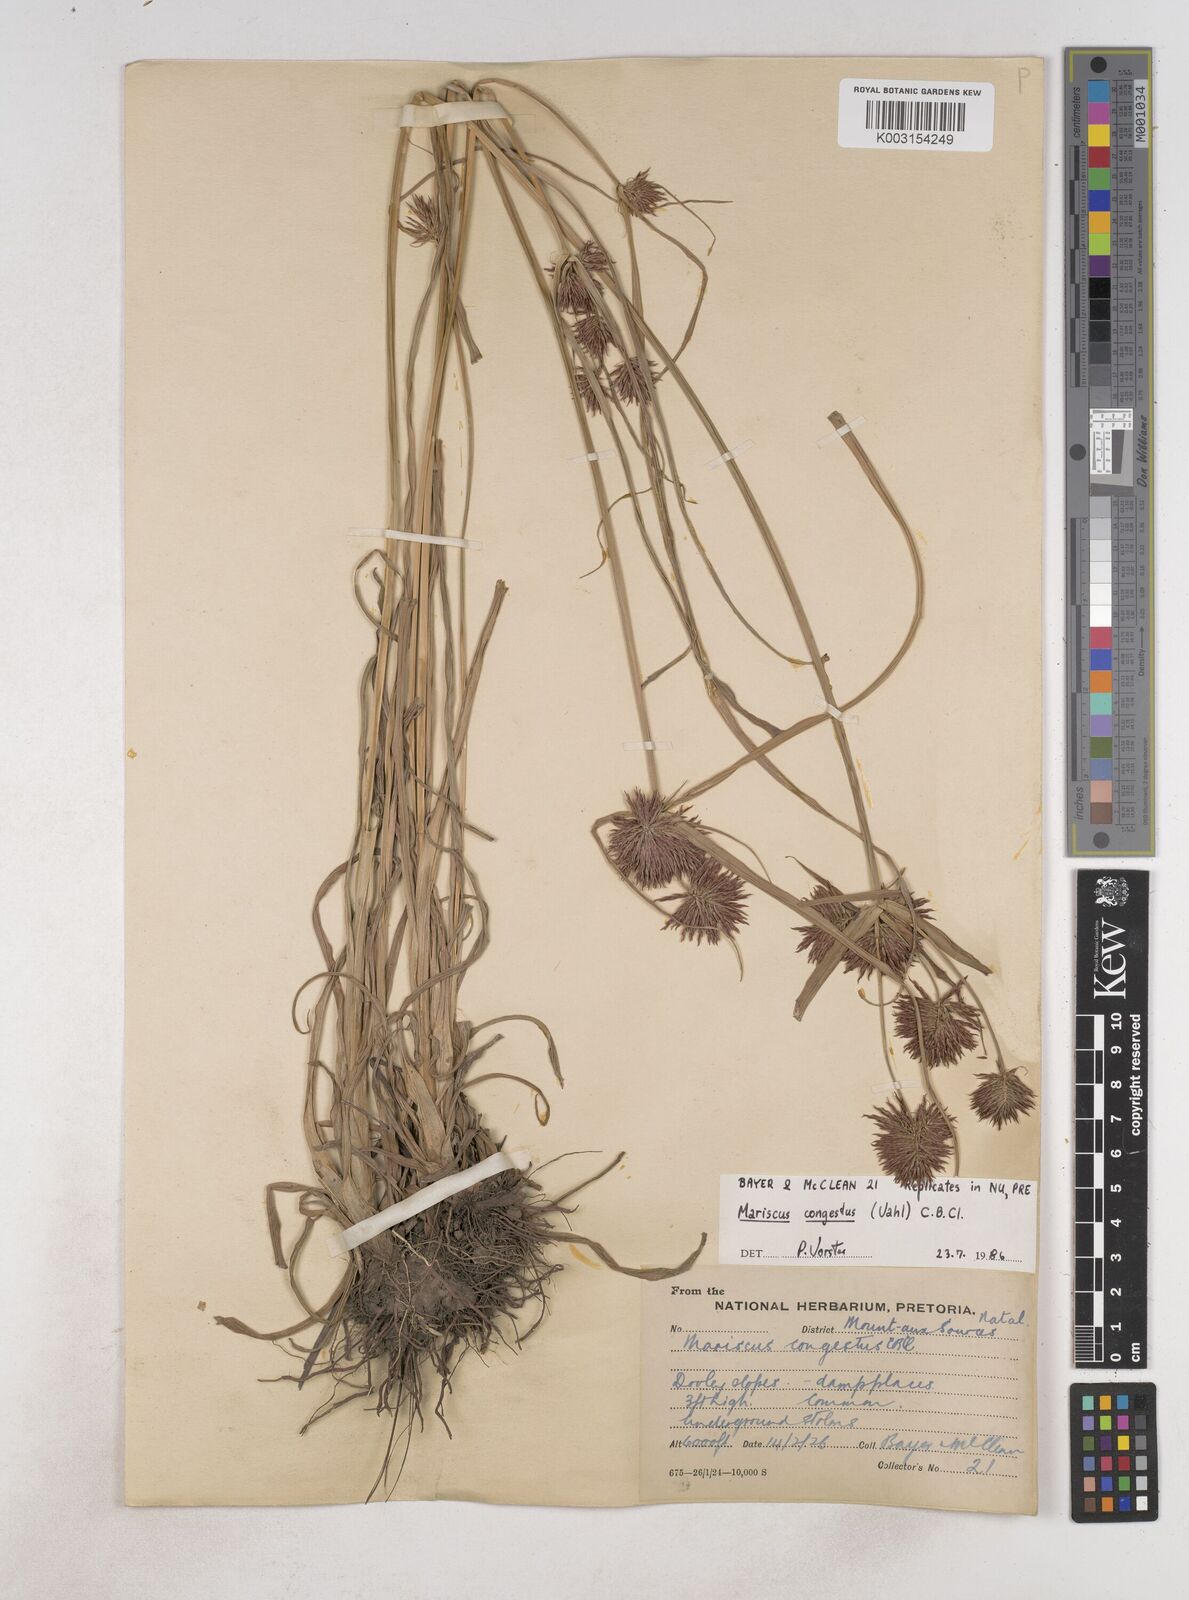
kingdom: Plantae
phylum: Tracheophyta
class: Liliopsida
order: Poales
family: Cyperaceae
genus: Cyperus
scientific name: Cyperus congestus
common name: Dense flat sedge
